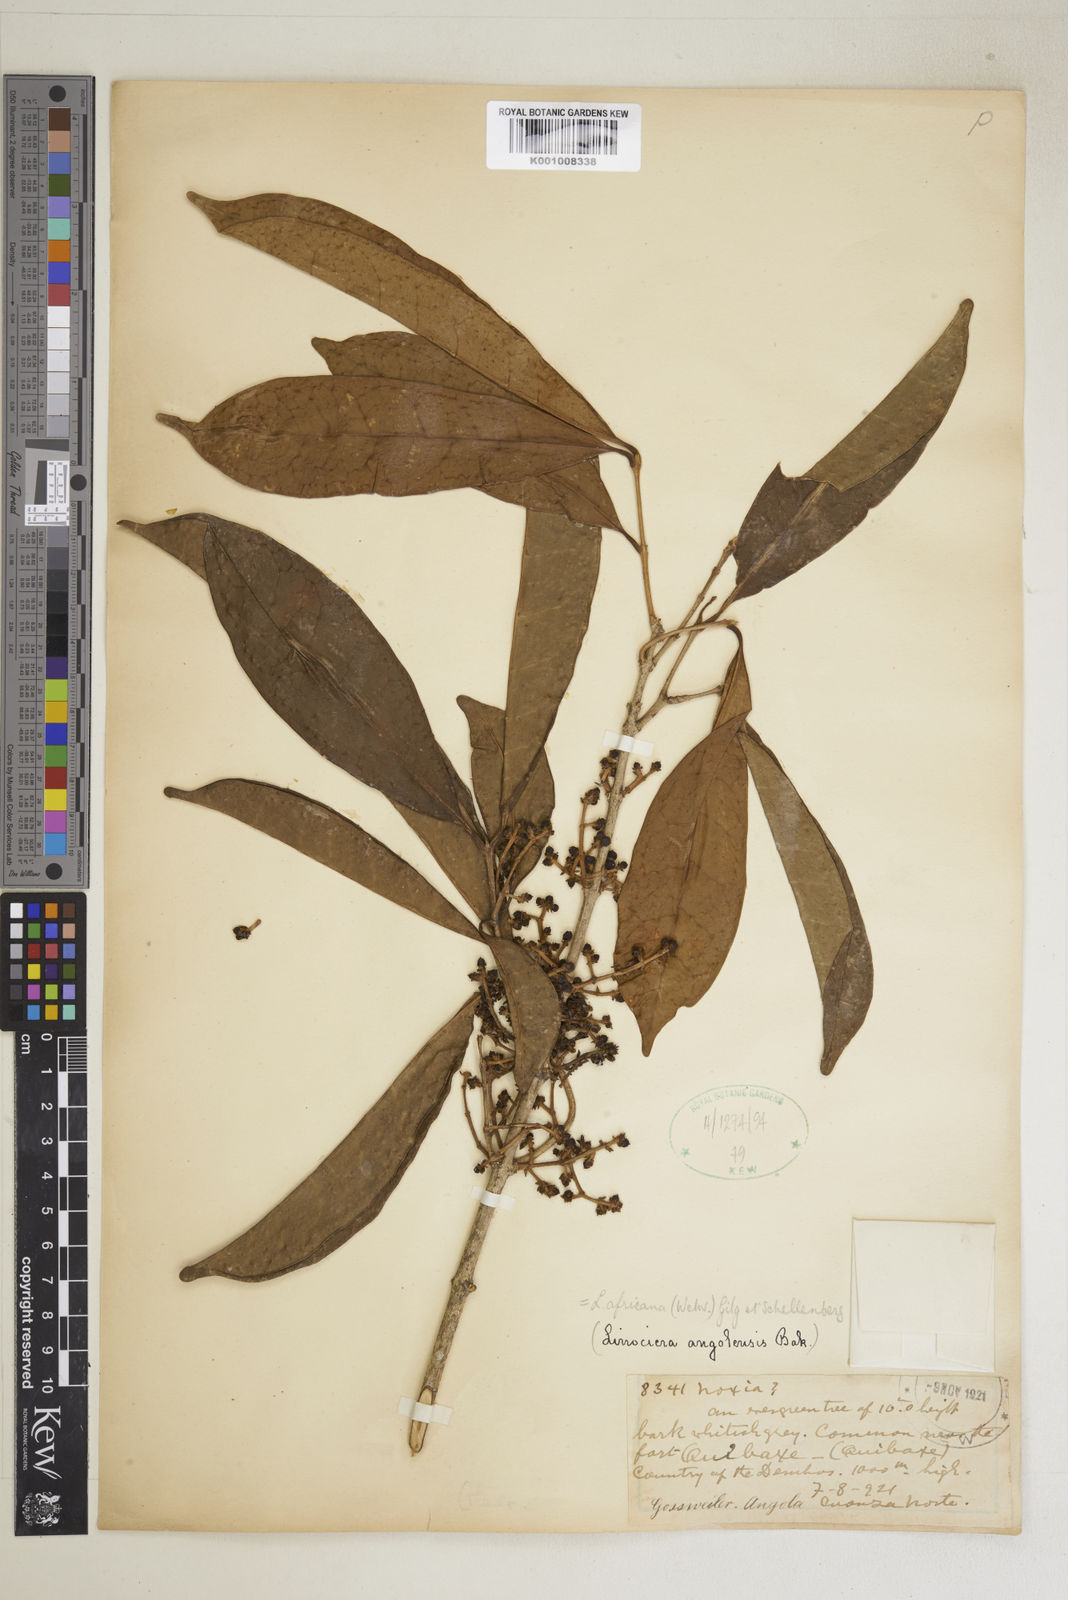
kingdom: Plantae
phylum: Tracheophyta
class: Magnoliopsida
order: Lamiales
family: Oleaceae
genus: Chionanthus
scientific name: Chionanthus
